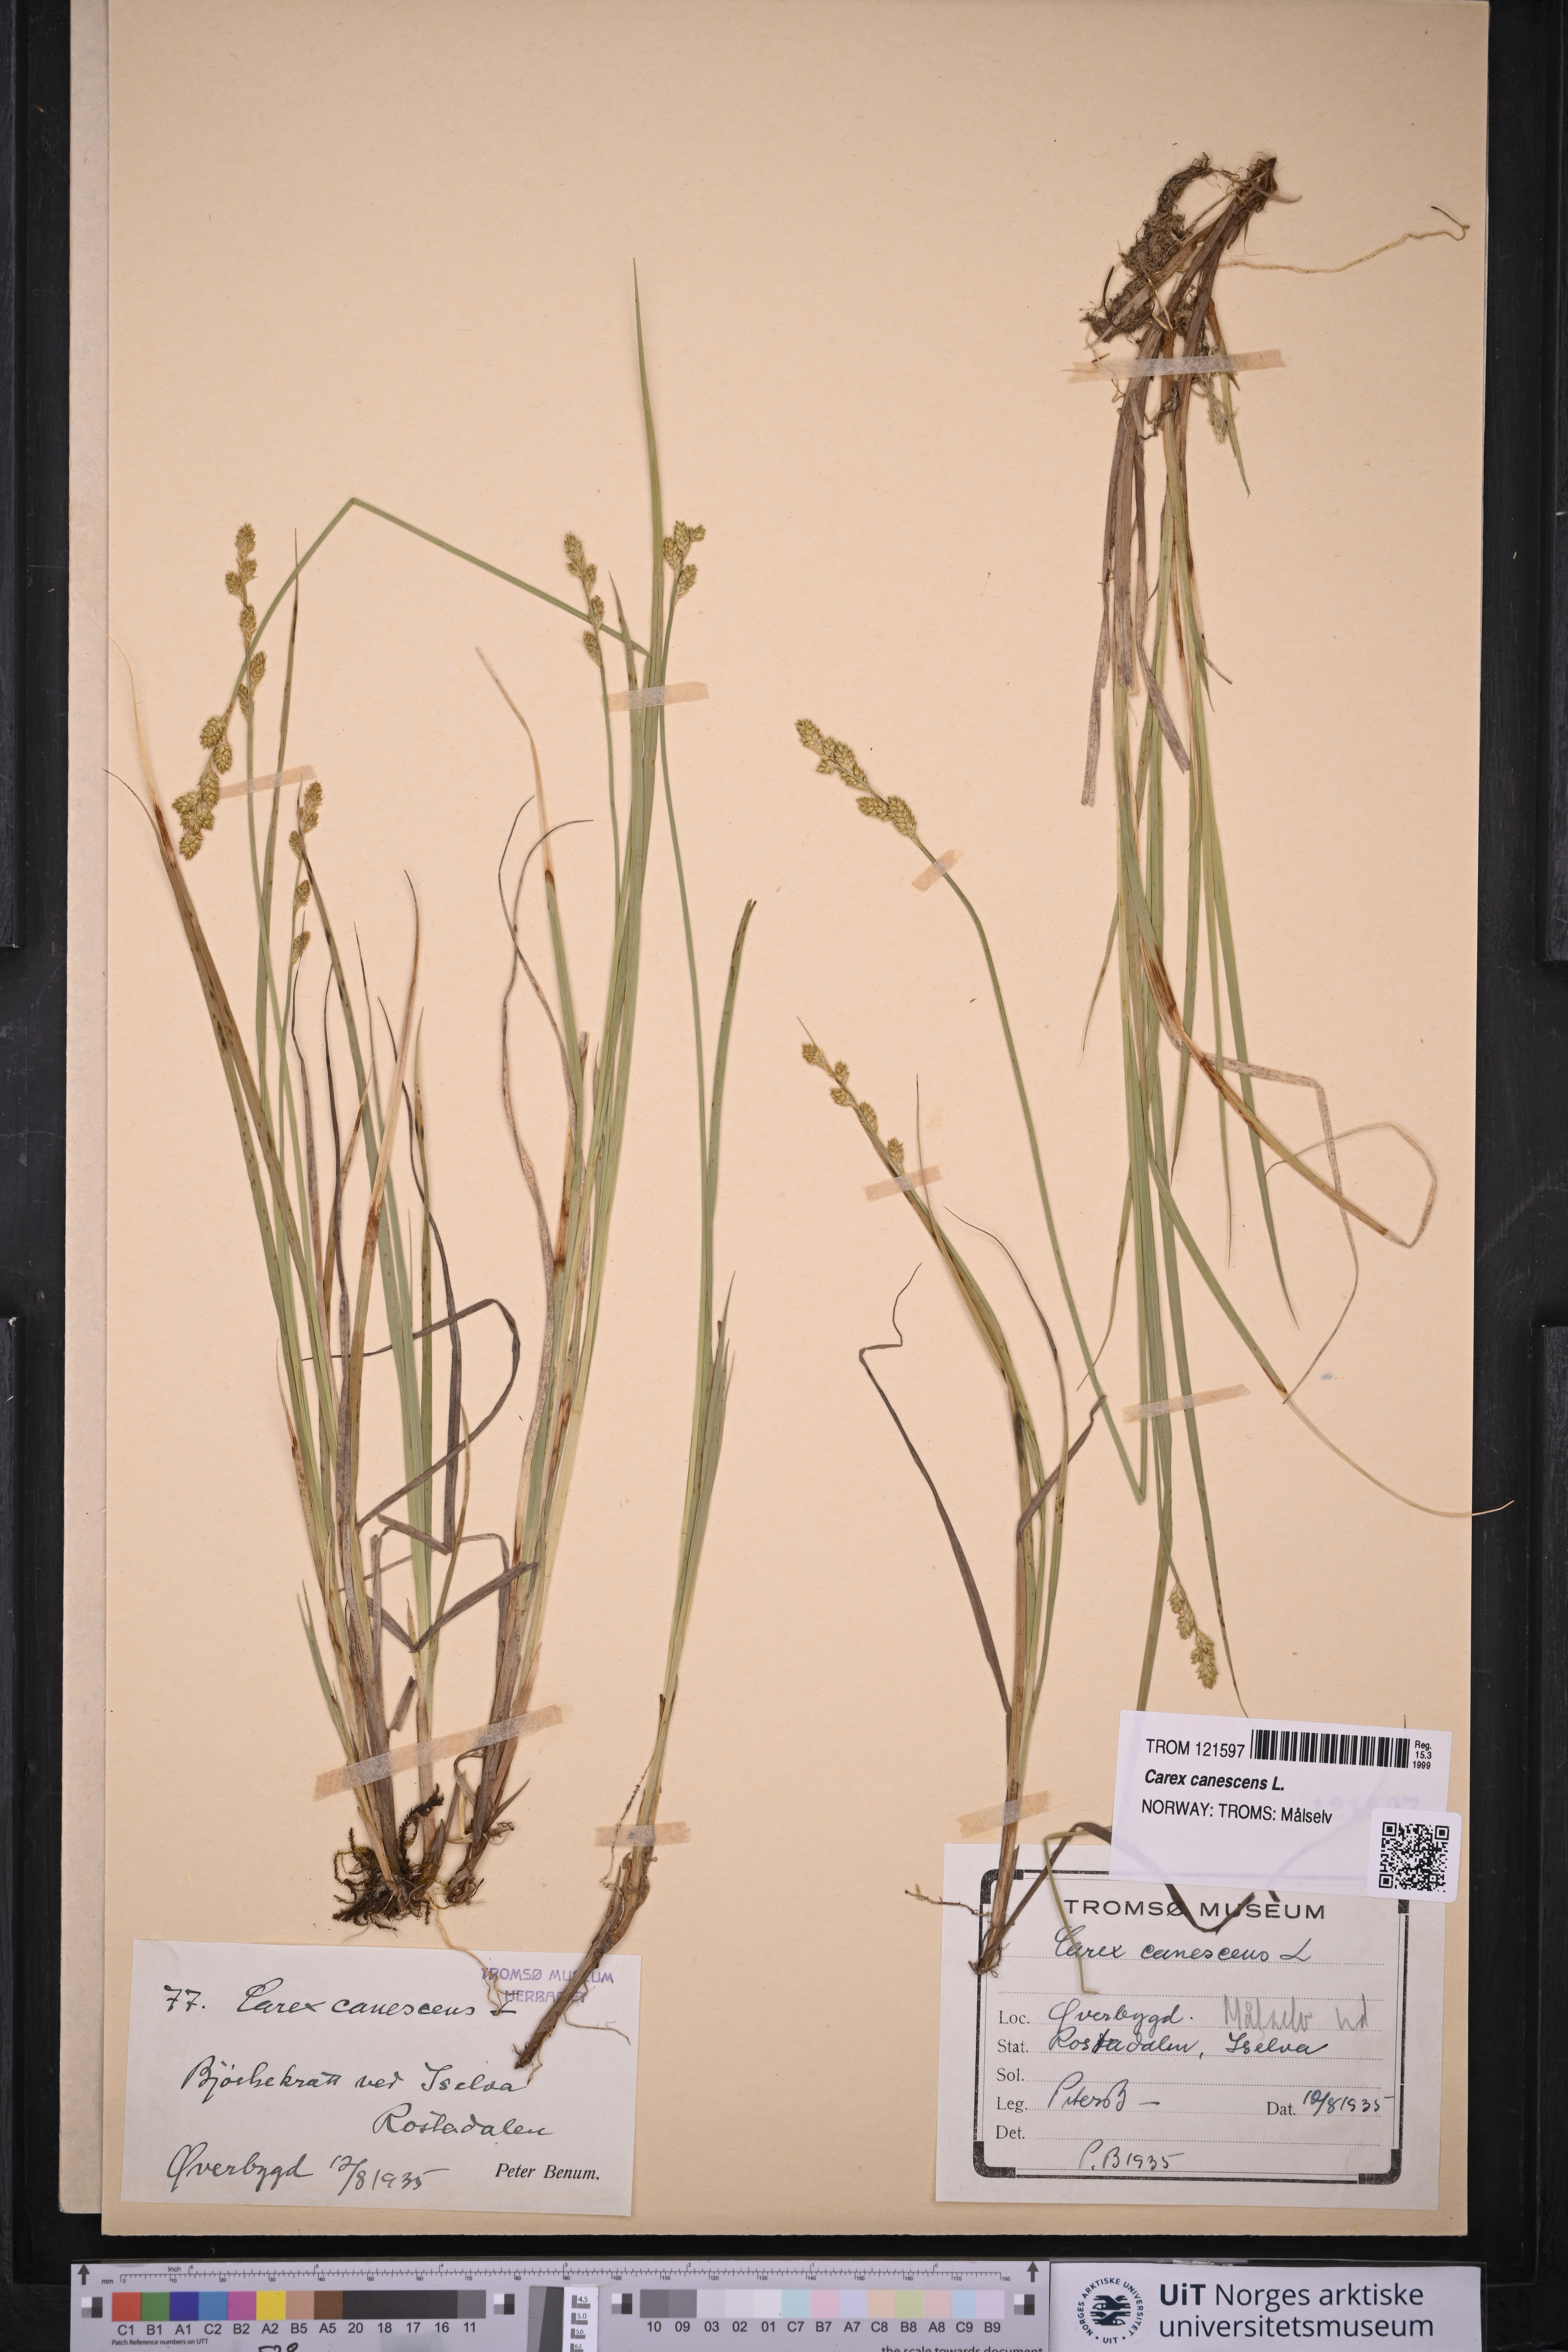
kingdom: Plantae
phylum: Tracheophyta
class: Liliopsida
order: Poales
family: Cyperaceae
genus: Carex
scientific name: Carex canescens
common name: White sedge
